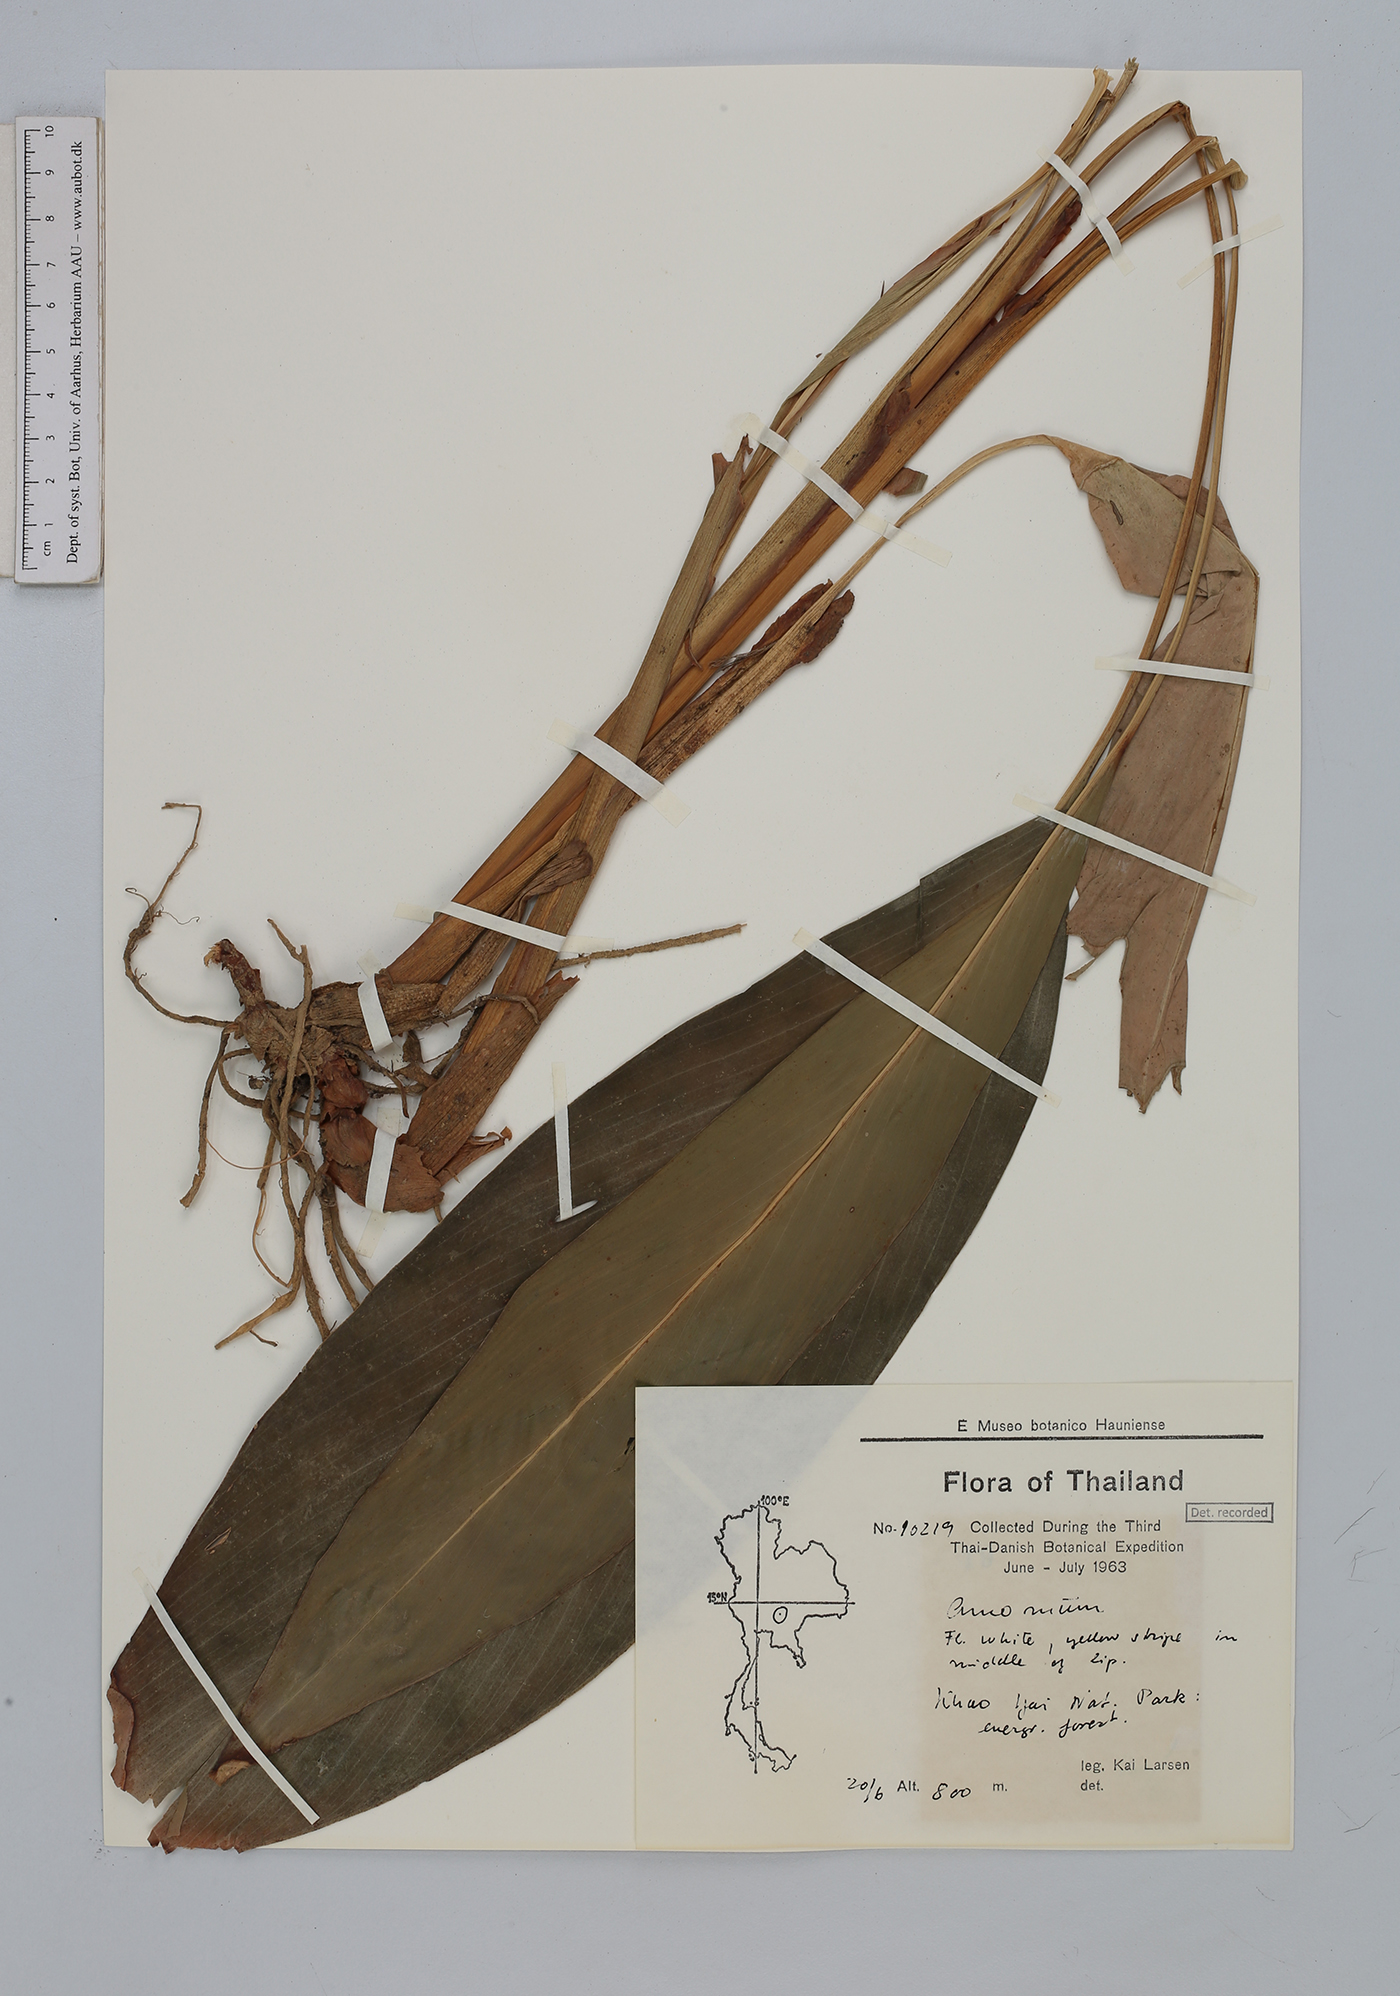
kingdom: Plantae
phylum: Tracheophyta
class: Liliopsida
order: Zingiberales
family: Zingiberaceae
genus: Amomum
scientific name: Amomum
